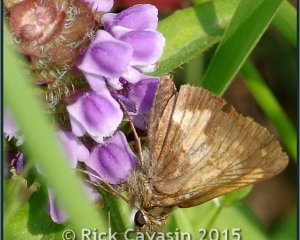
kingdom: Animalia
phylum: Arthropoda
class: Insecta
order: Lepidoptera
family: Hesperiidae
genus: Lon
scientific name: Lon hobomok
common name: Hobomok Skipper
